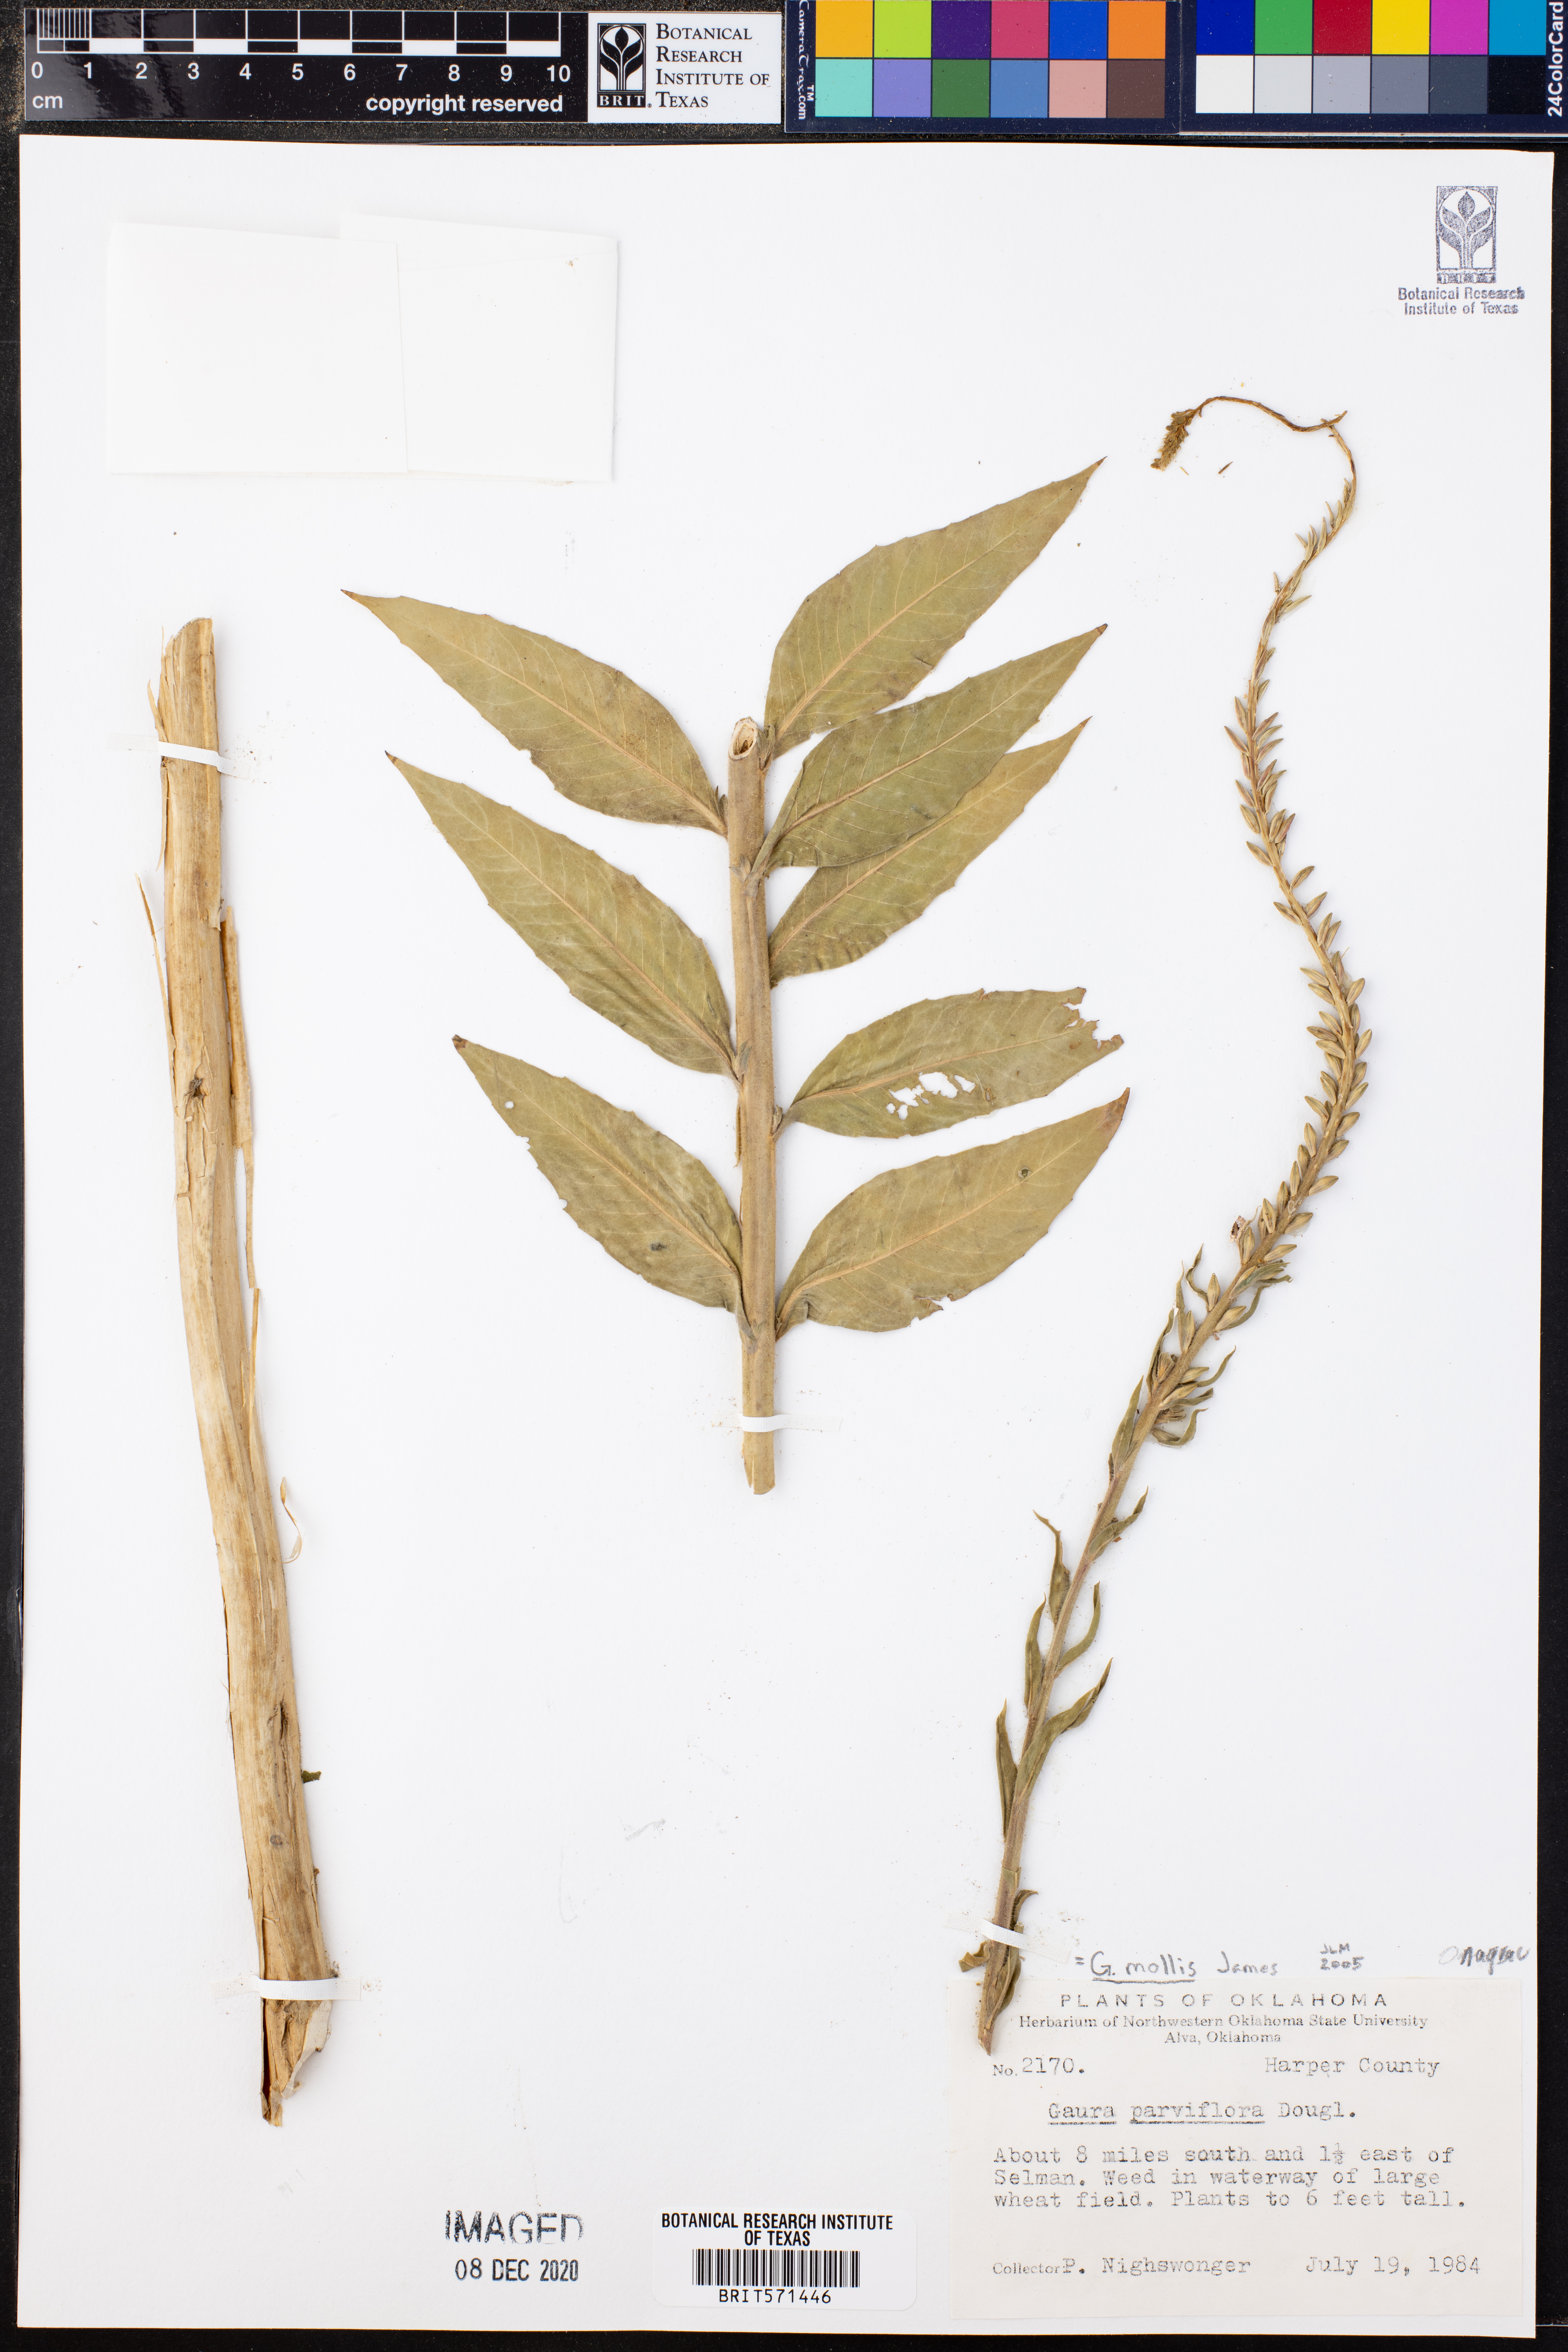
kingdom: Plantae
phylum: Tracheophyta
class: Magnoliopsida
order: Myrtales
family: Onagraceae
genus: Oenothera
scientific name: Oenothera curtiflora
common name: Velvetweed
